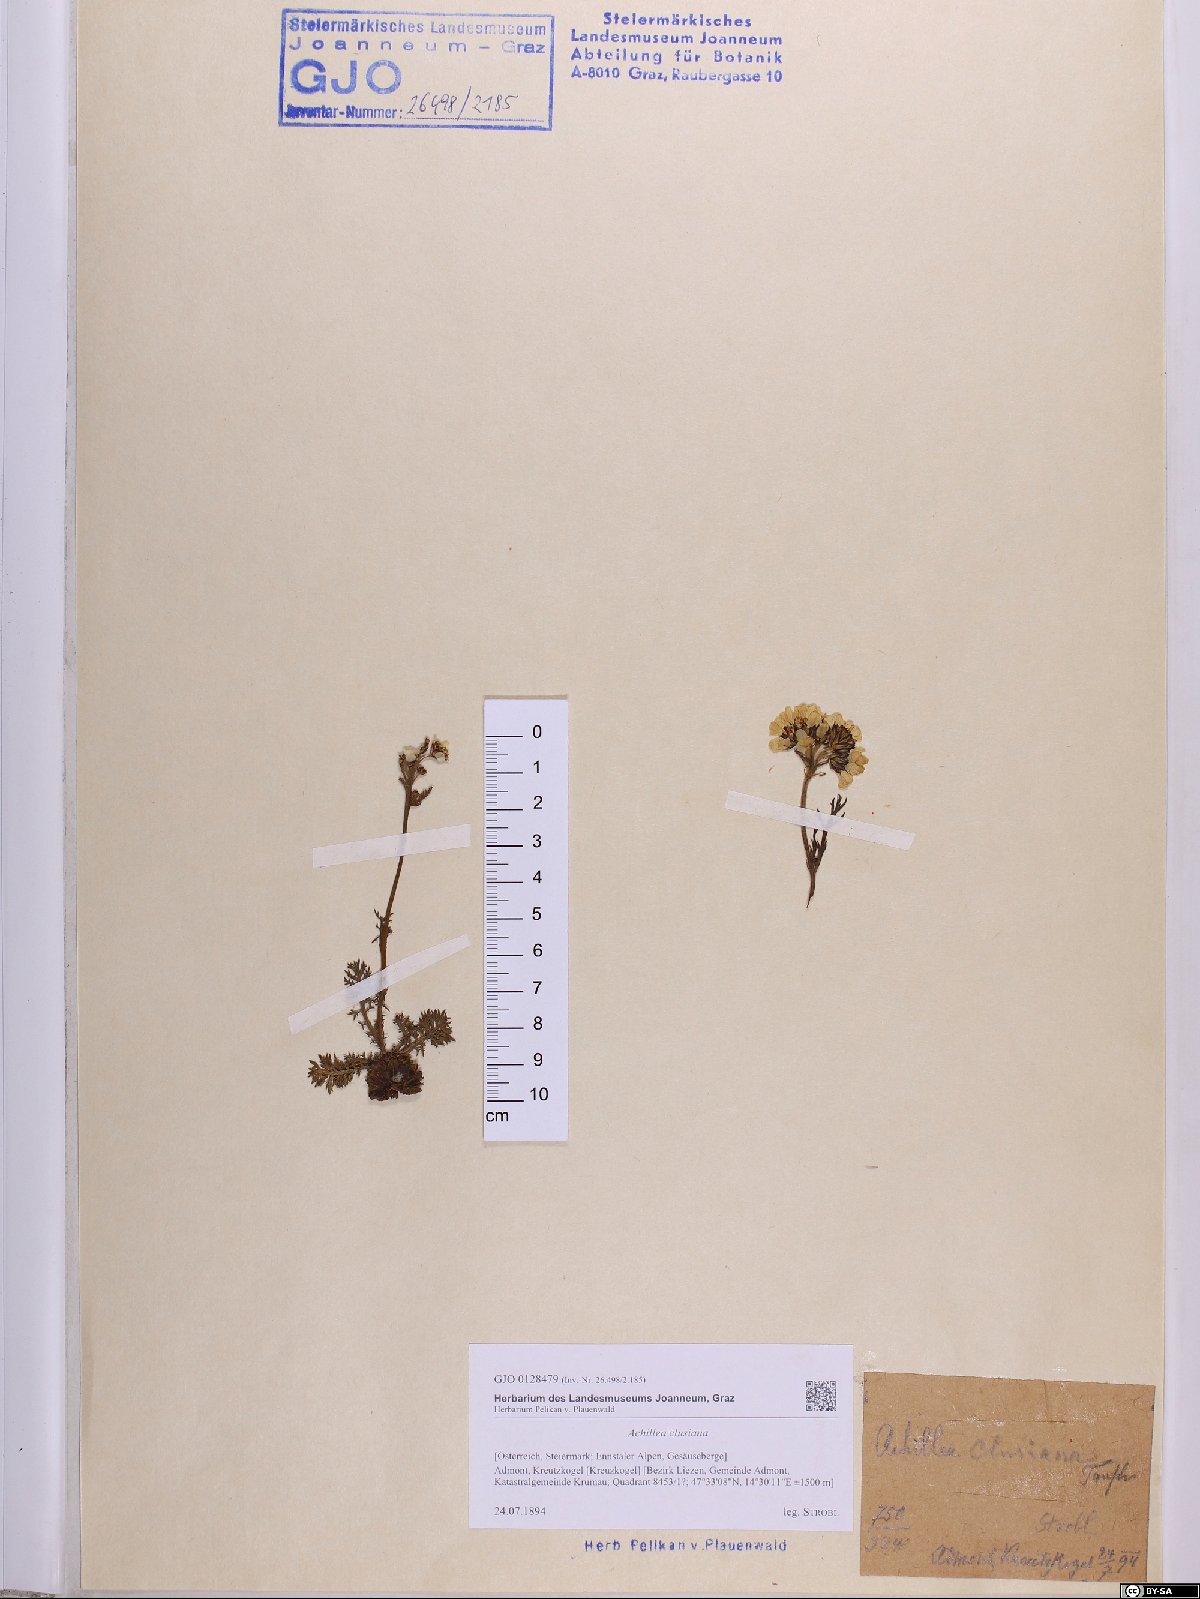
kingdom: Plantae
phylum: Tracheophyta
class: Magnoliopsida
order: Asterales
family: Asteraceae
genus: Achillea
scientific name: Achillea clusiana
